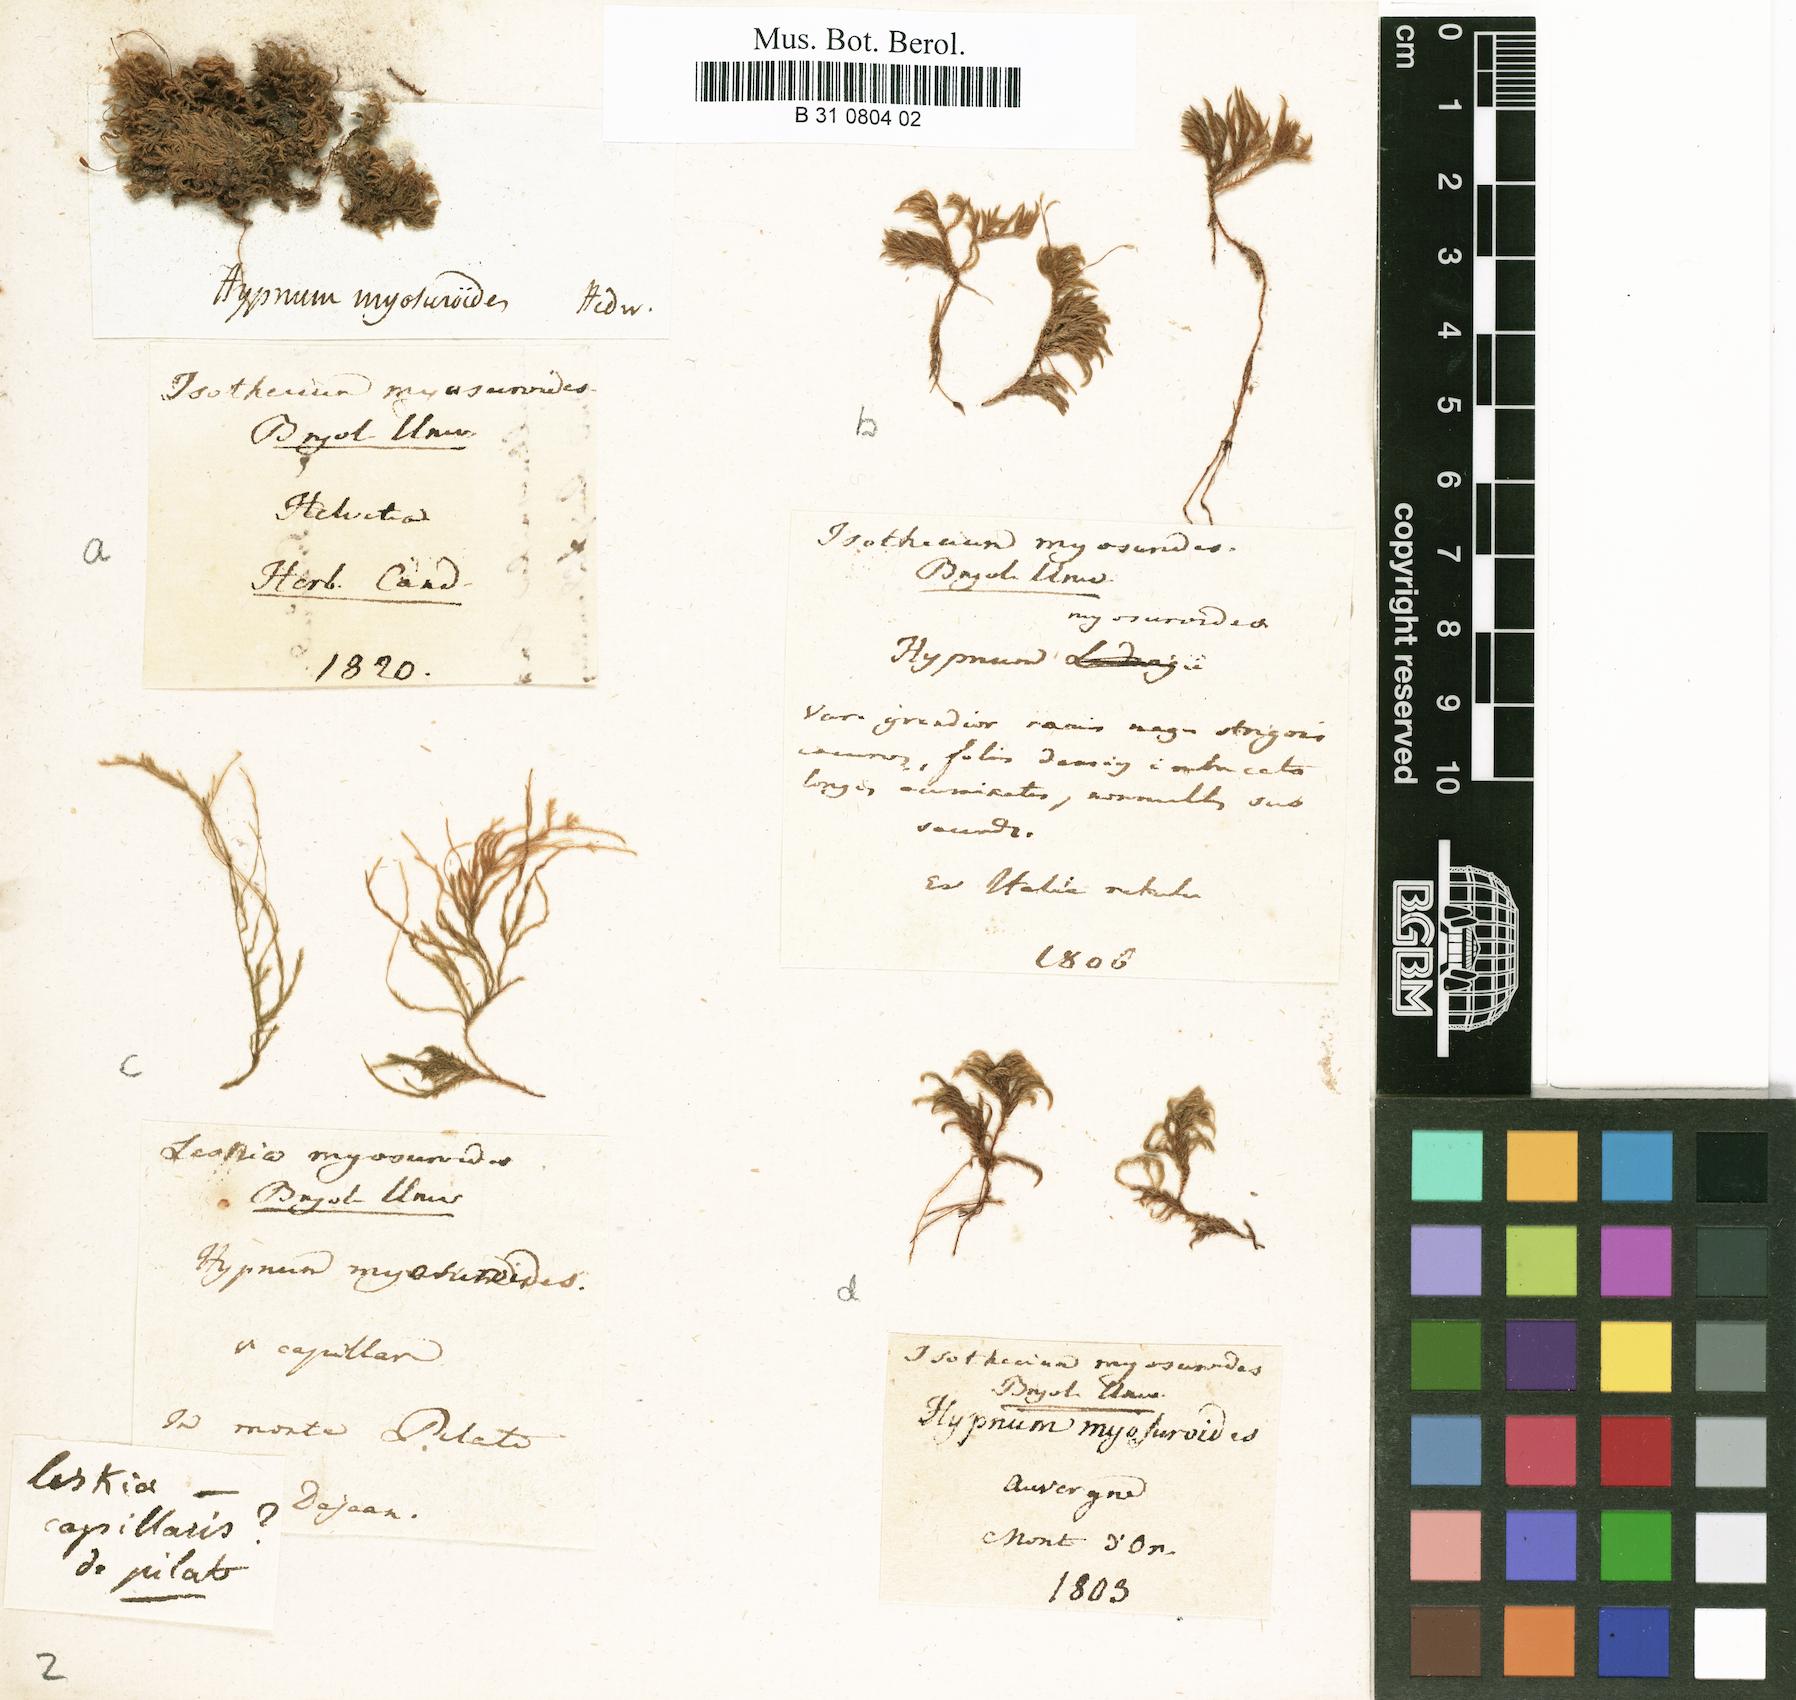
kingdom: Plantae
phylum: Bryophyta
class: Bryopsida
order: Hypnales
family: Lembophyllaceae
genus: Pseudisothecium
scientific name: Pseudisothecium myosuroides
